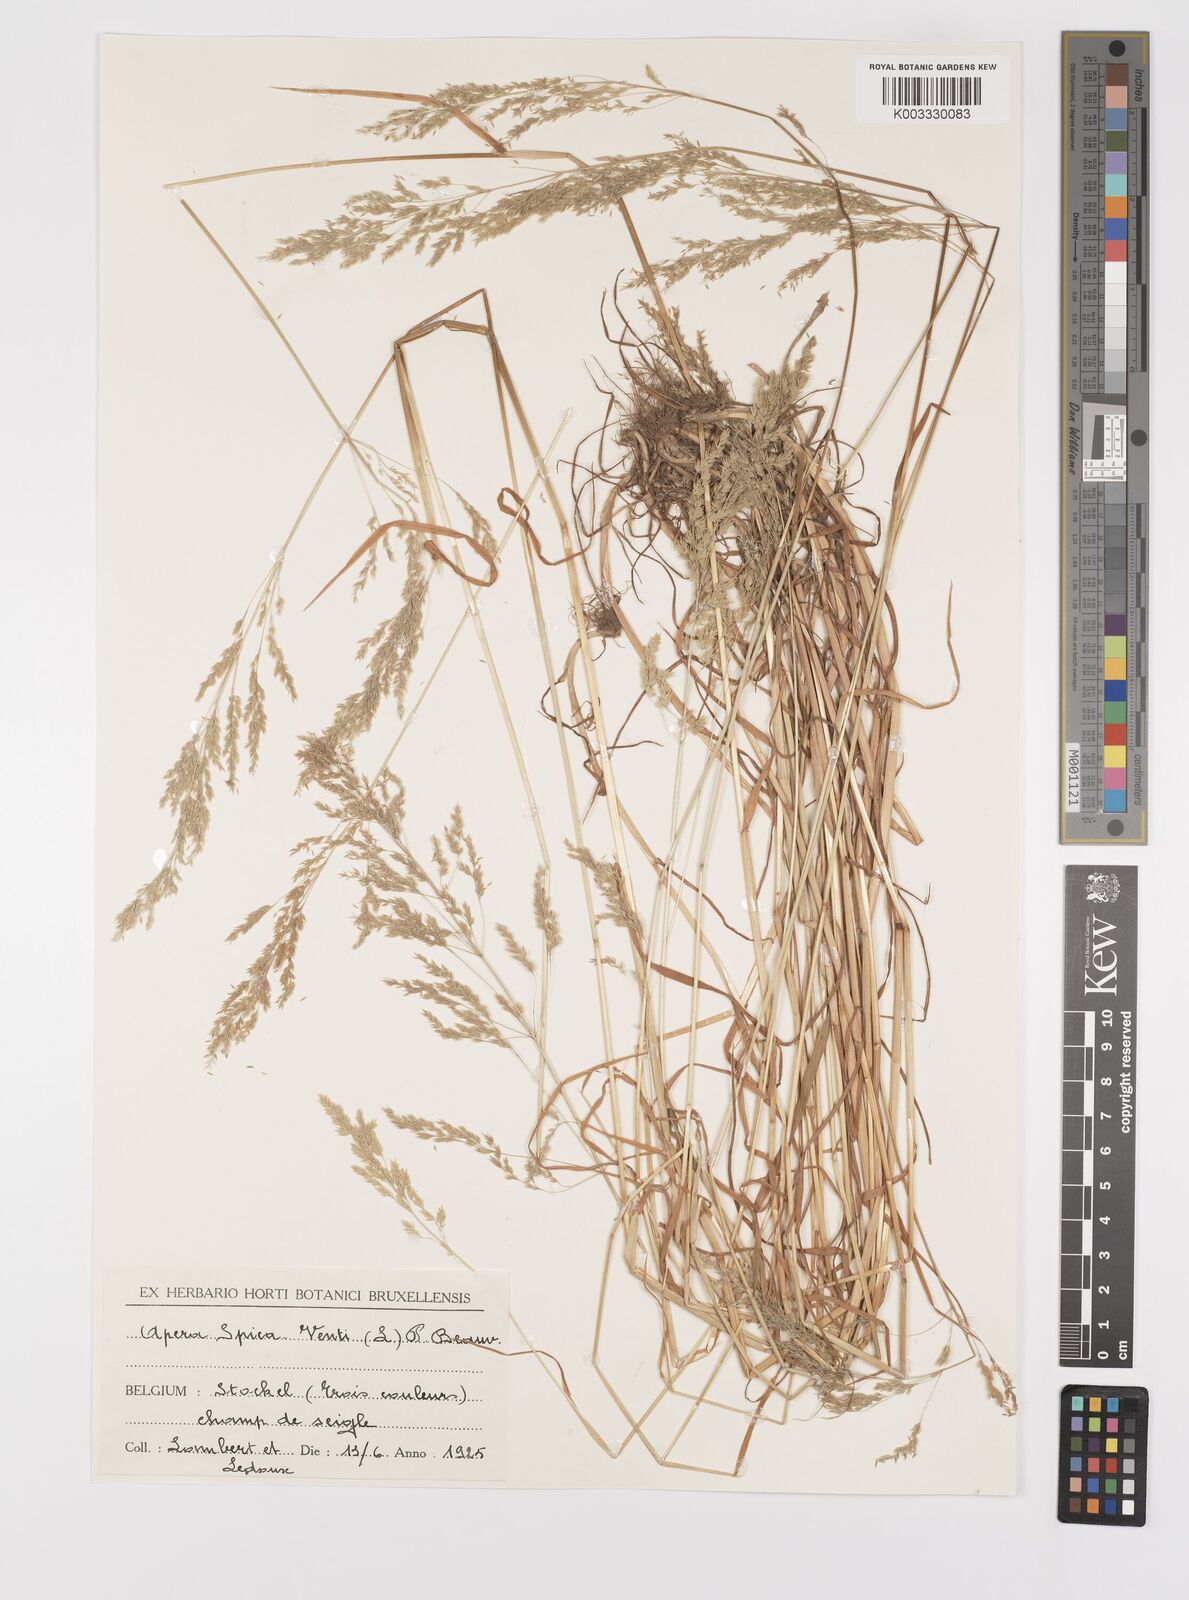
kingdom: Plantae
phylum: Tracheophyta
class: Liliopsida
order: Poales
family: Poaceae
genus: Apera
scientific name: Apera spica-venti
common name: Loose silky-bent
